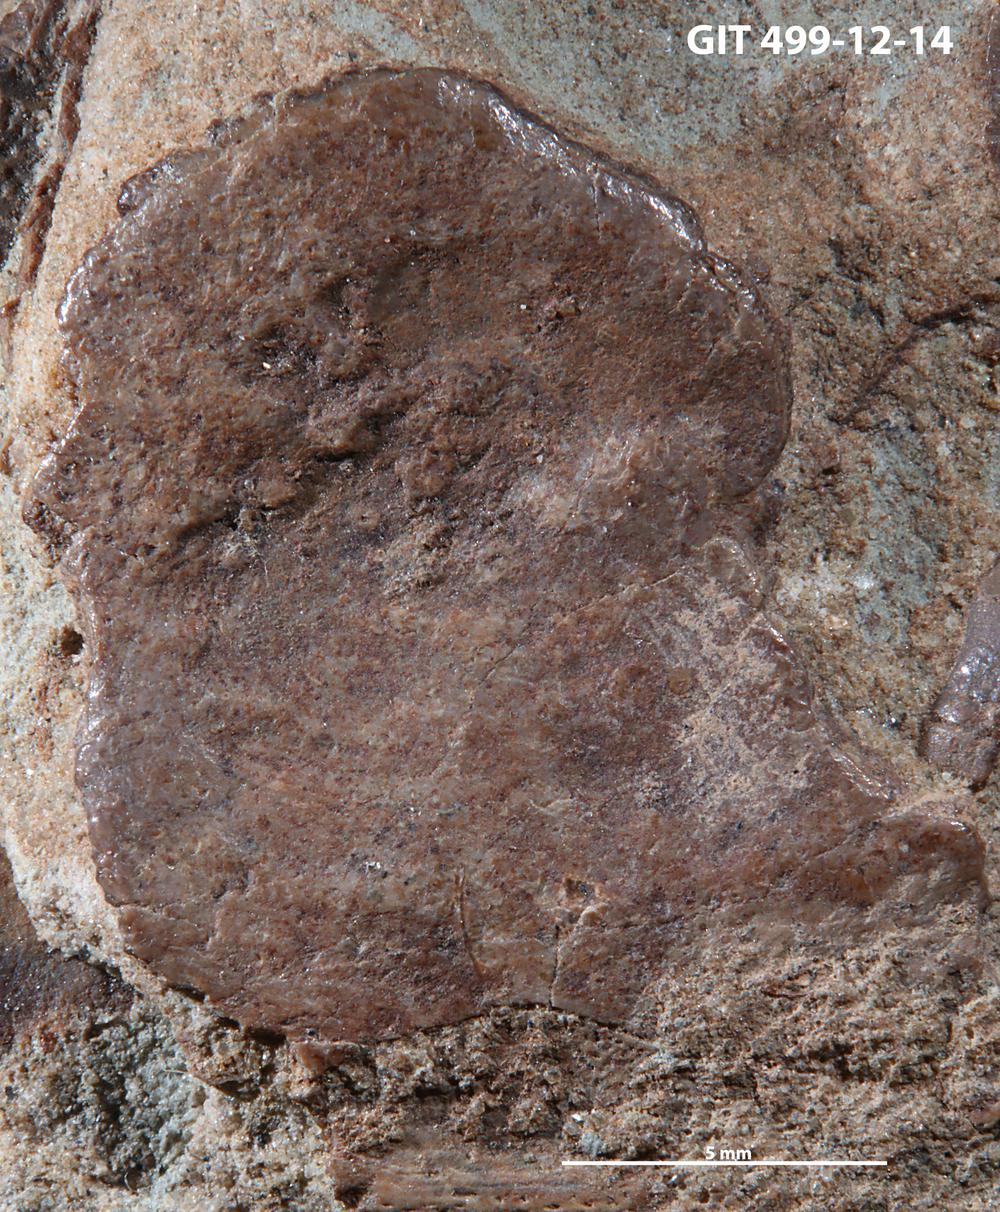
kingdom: Animalia
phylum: Chordata
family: Holoptychiidae
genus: Glyptolepis
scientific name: Glyptolepis
